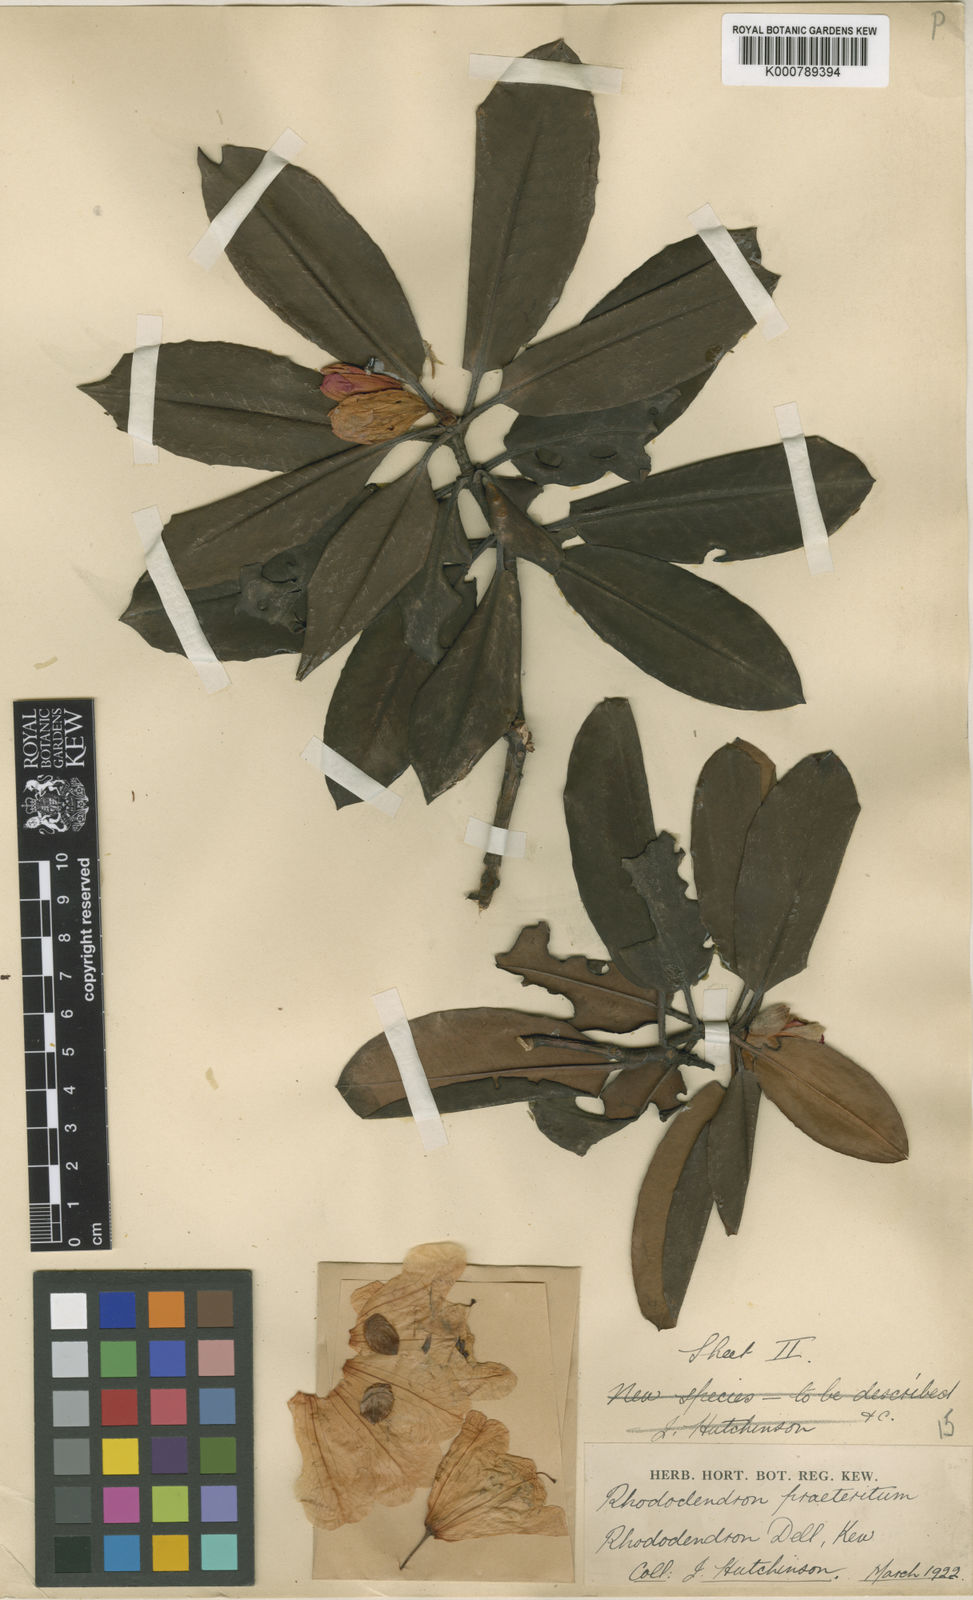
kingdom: Plantae
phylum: Tracheophyta
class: Magnoliopsida
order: Ericales
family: Ericaceae
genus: Rhododendron
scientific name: Rhododendron praeteritum
